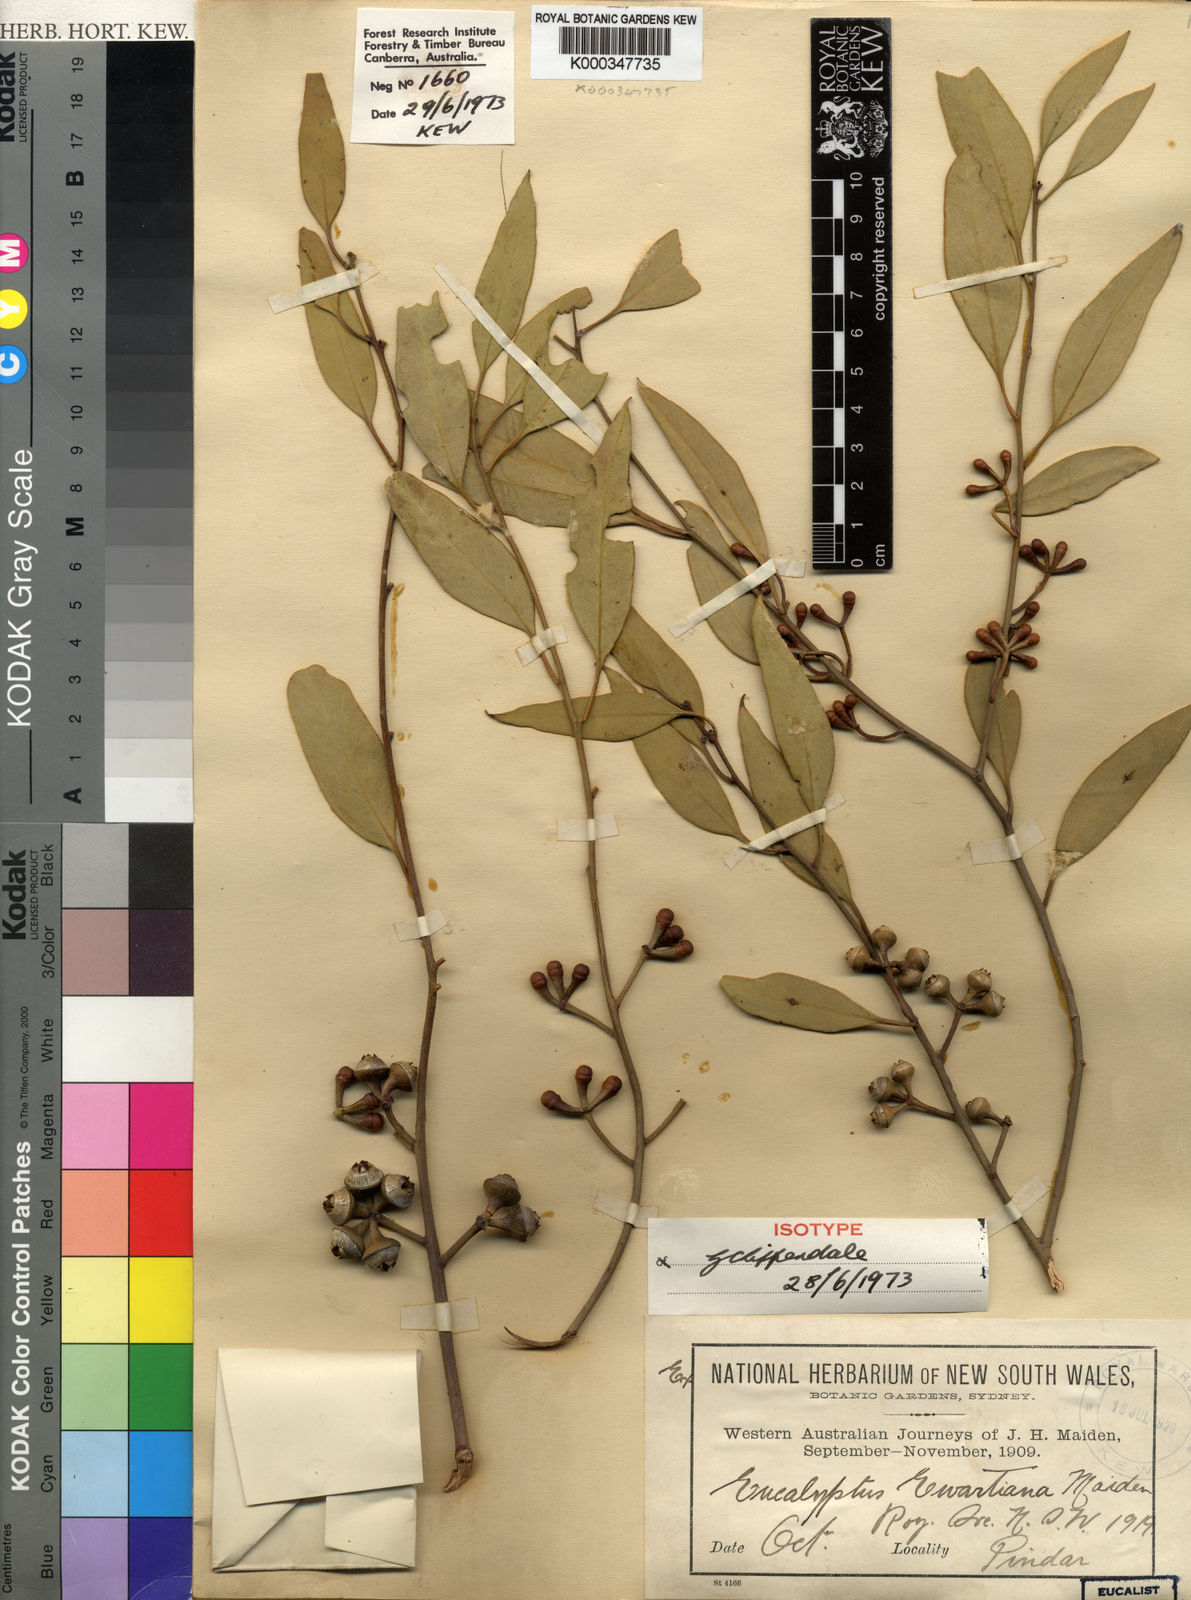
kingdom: Plantae
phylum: Tracheophyta
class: Magnoliopsida
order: Myrtales
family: Myrtaceae
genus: Eucalyptus
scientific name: Eucalyptus ewartiana
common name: Ewart's mallee
